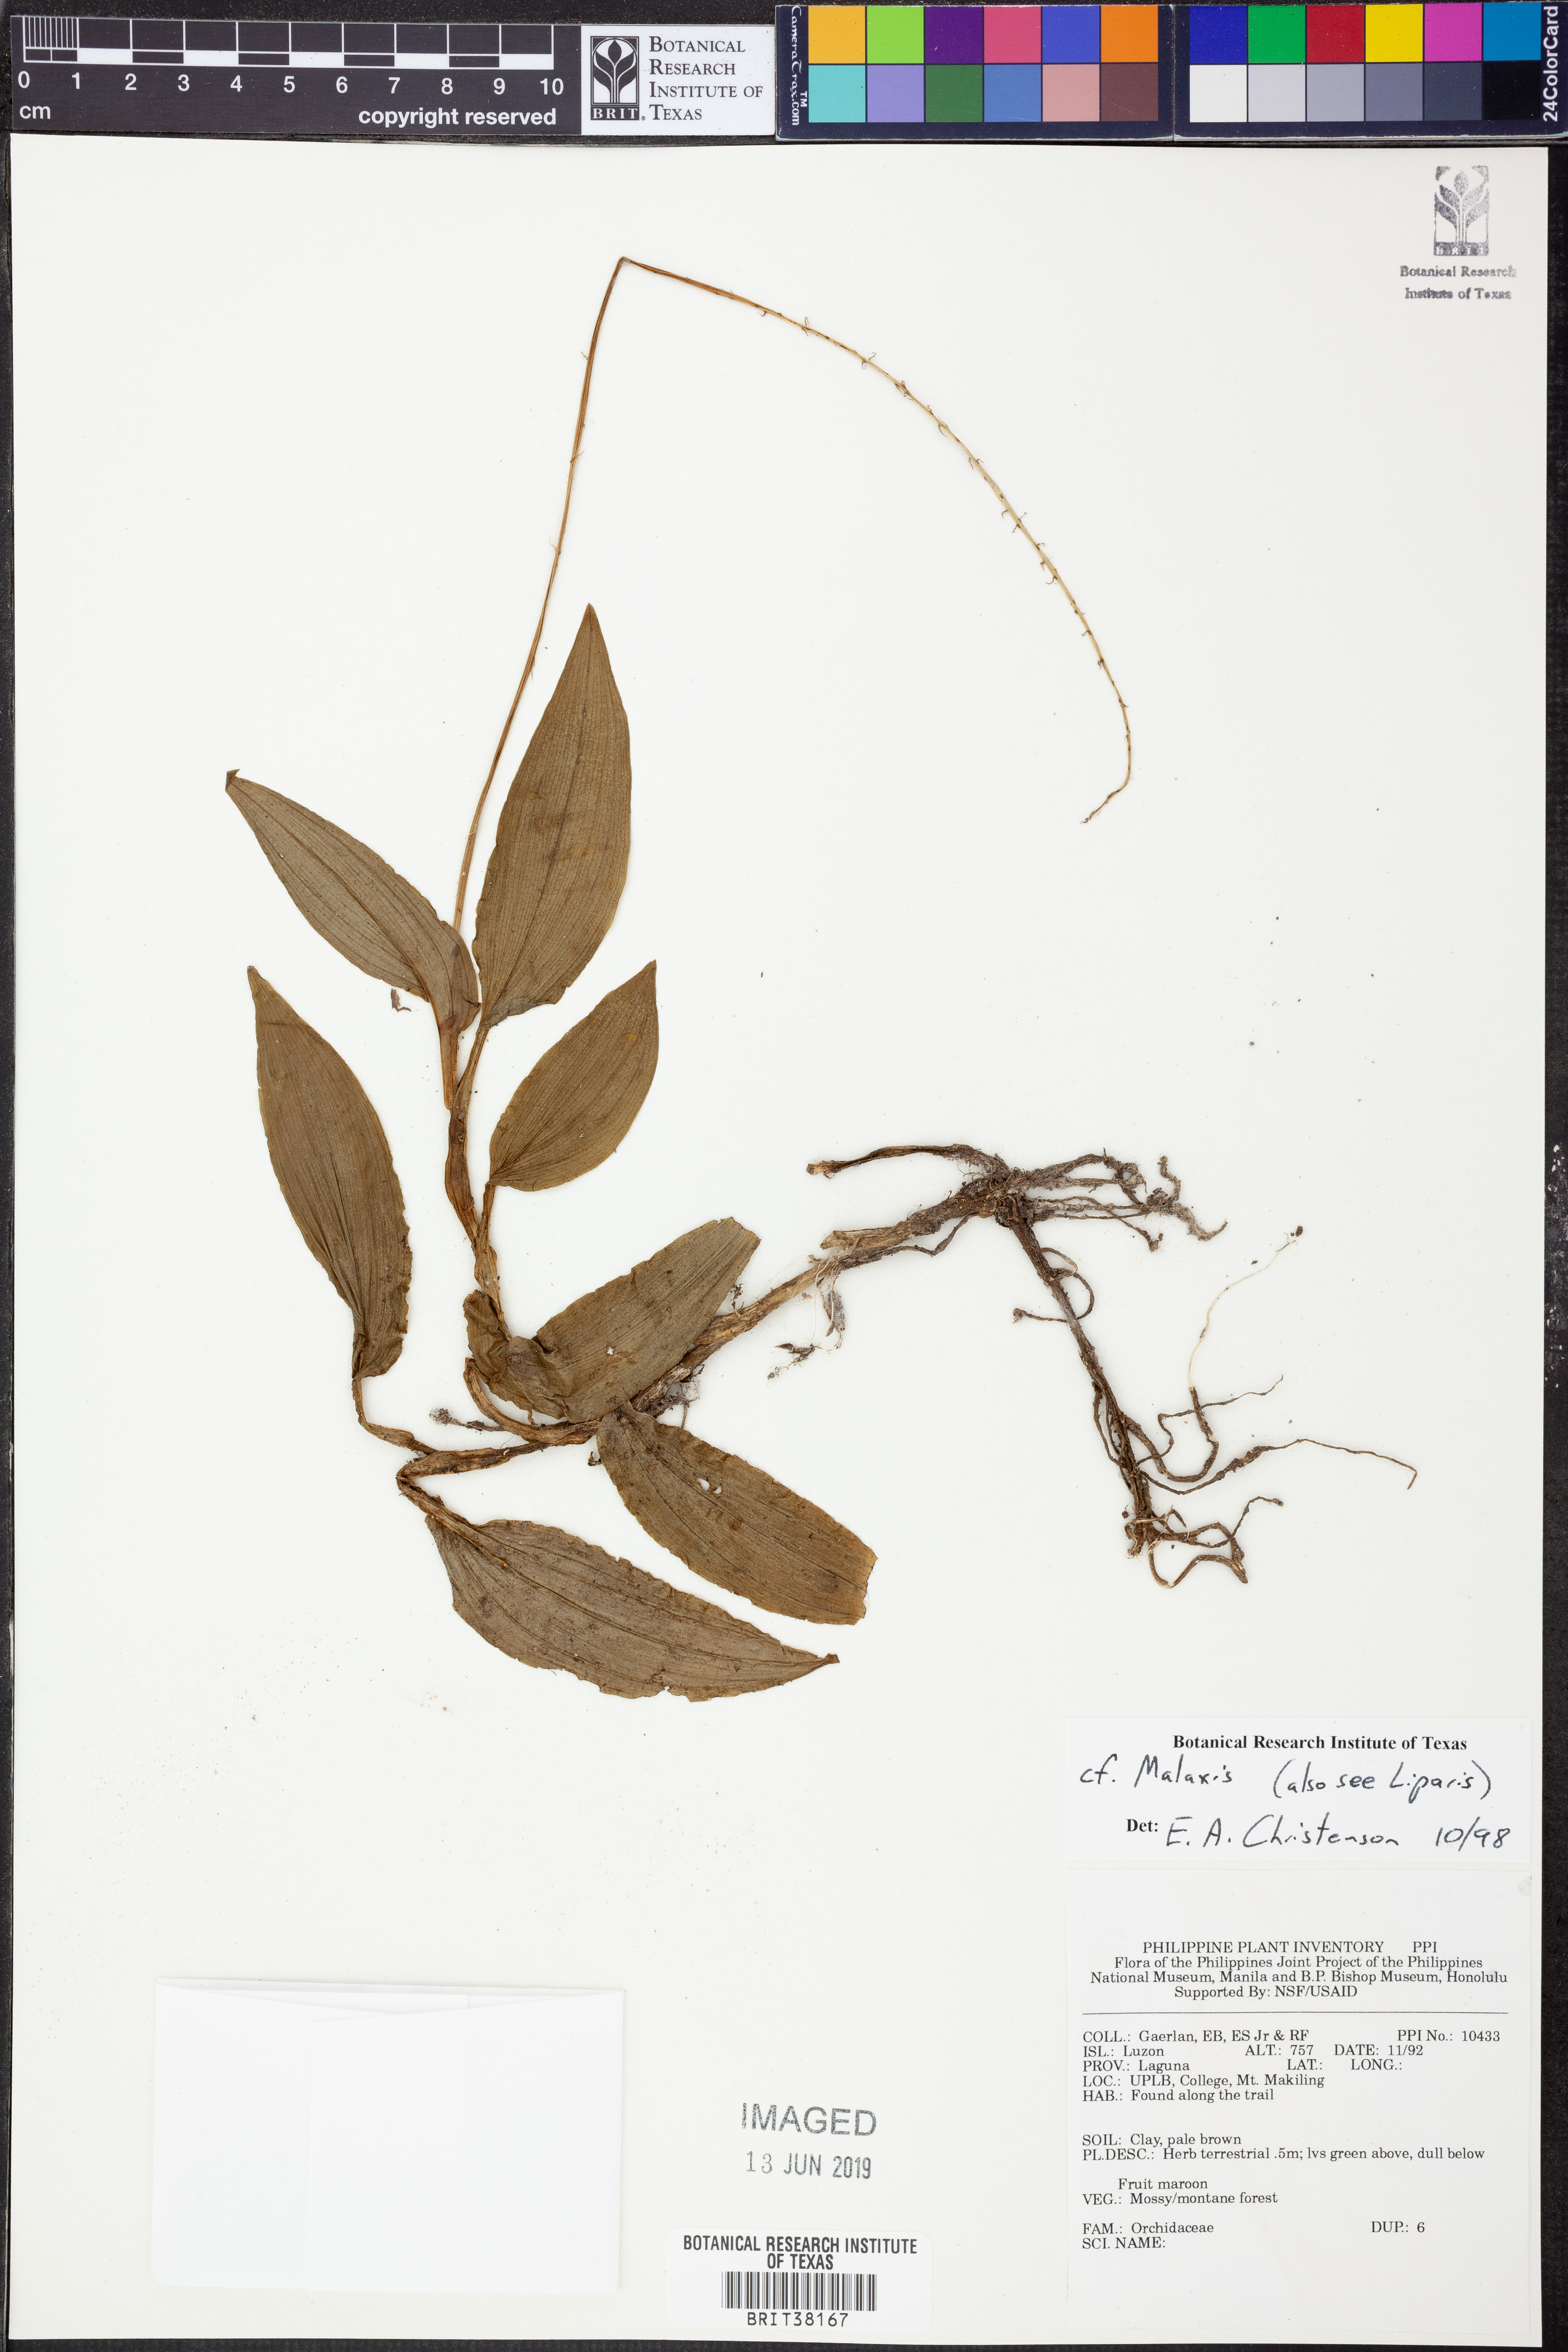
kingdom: Plantae
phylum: Tracheophyta
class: Liliopsida
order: Asparagales
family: Orchidaceae
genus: Malaxis
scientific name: Malaxis
